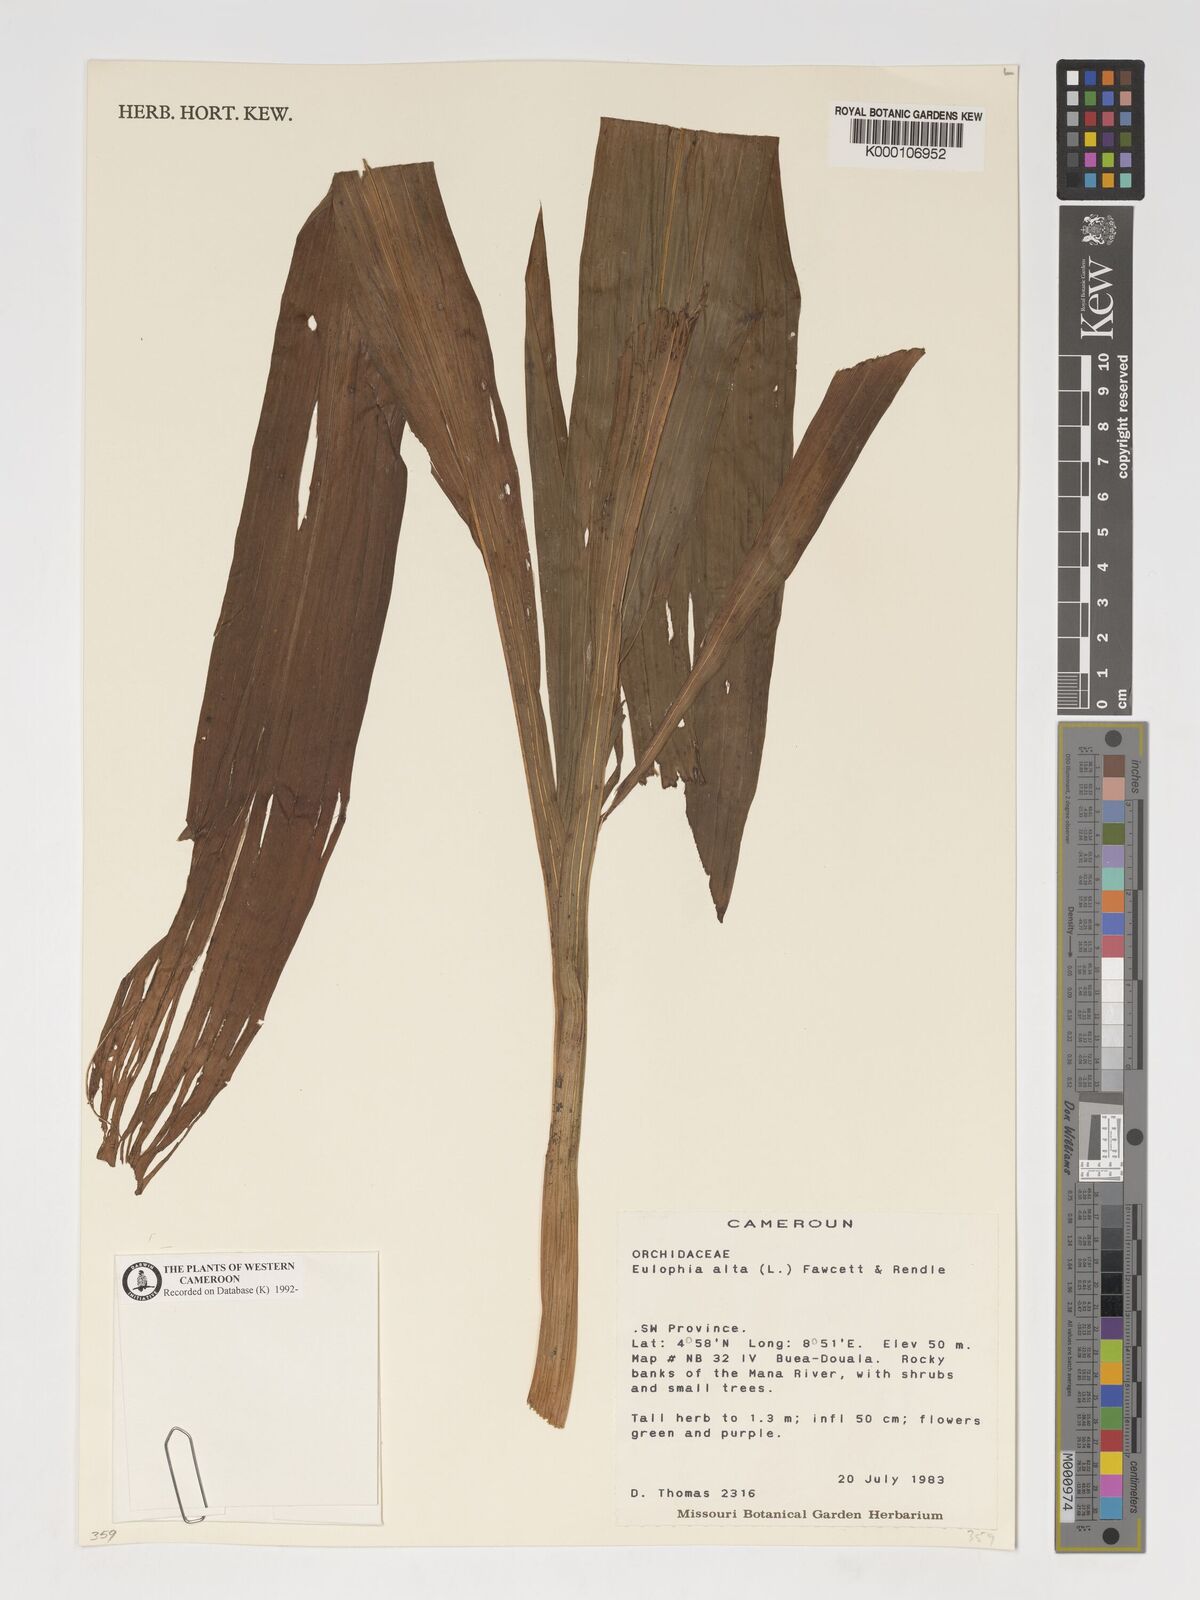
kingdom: Plantae
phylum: Tracheophyta
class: Liliopsida
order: Asparagales
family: Orchidaceae
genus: Eulophia
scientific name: Eulophia alta
